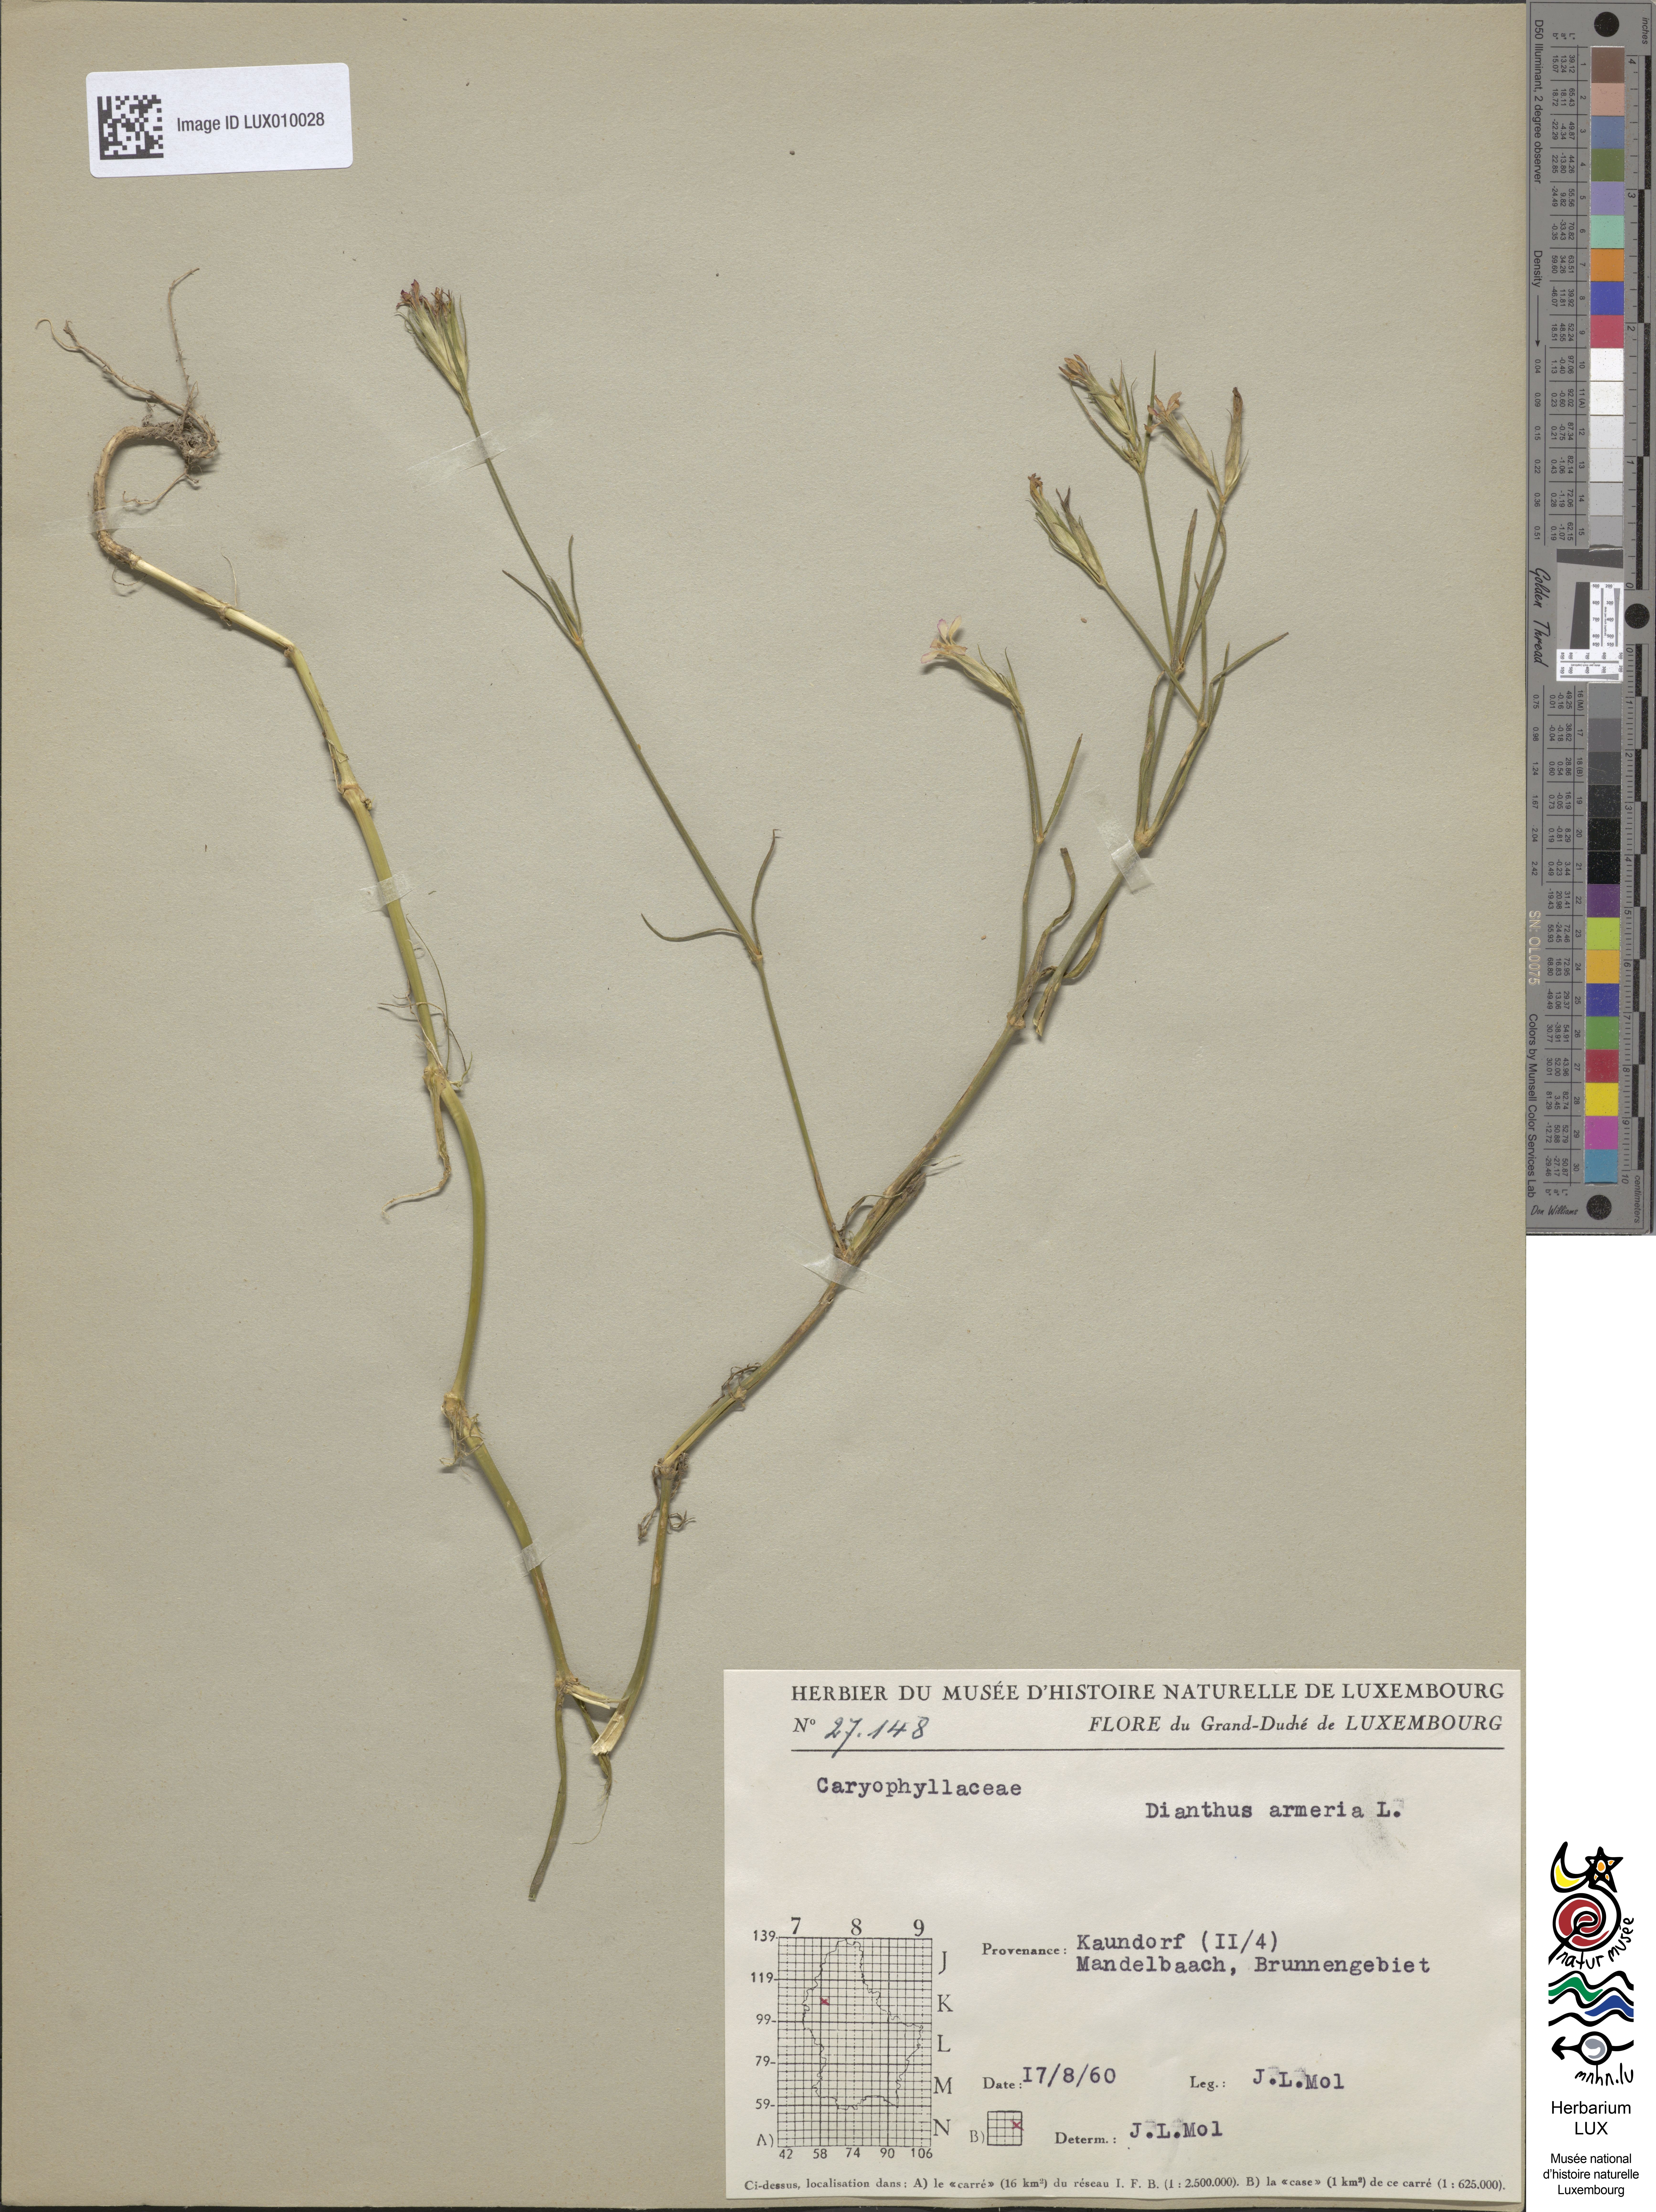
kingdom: Plantae
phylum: Tracheophyta
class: Magnoliopsida
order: Caryophyllales
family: Caryophyllaceae
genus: Dianthus
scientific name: Dianthus armeria
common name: Deptford pink
